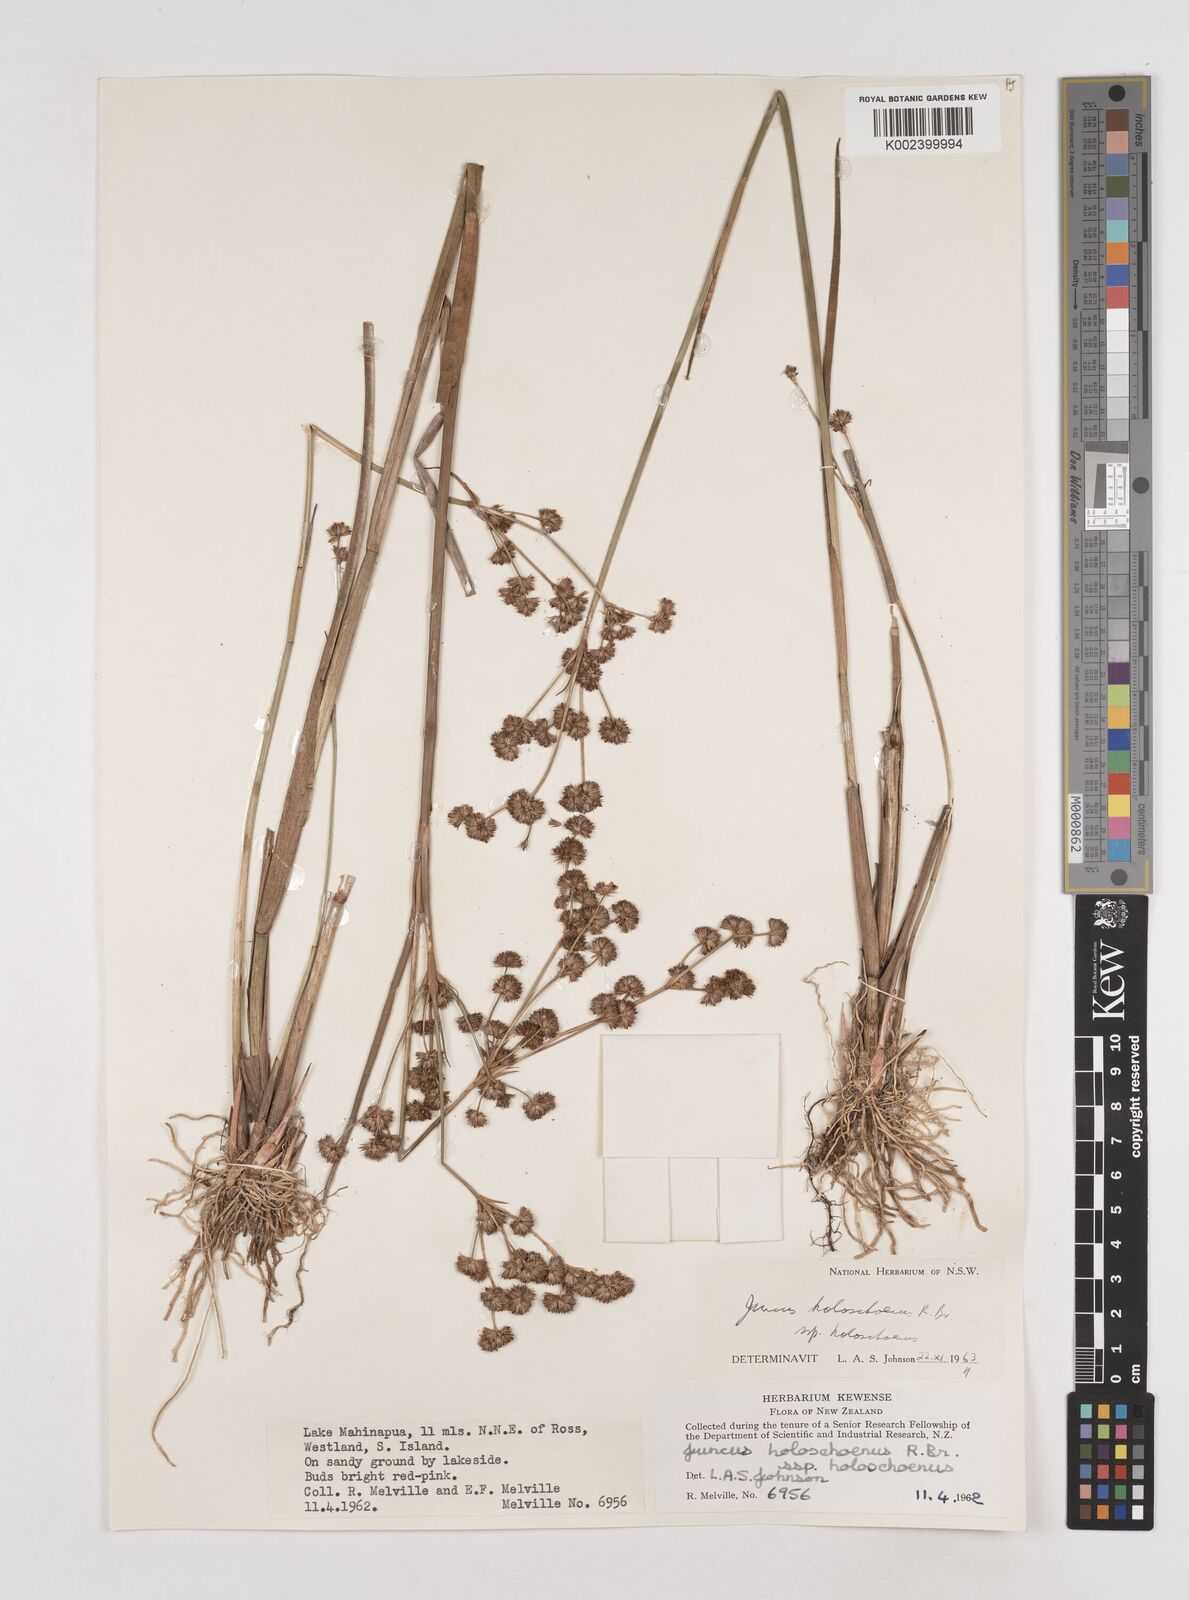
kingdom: Plantae
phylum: Tracheophyta
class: Liliopsida
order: Poales
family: Juncaceae
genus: Juncus
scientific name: Juncus holoschoenus
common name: Joint-leaf rush
